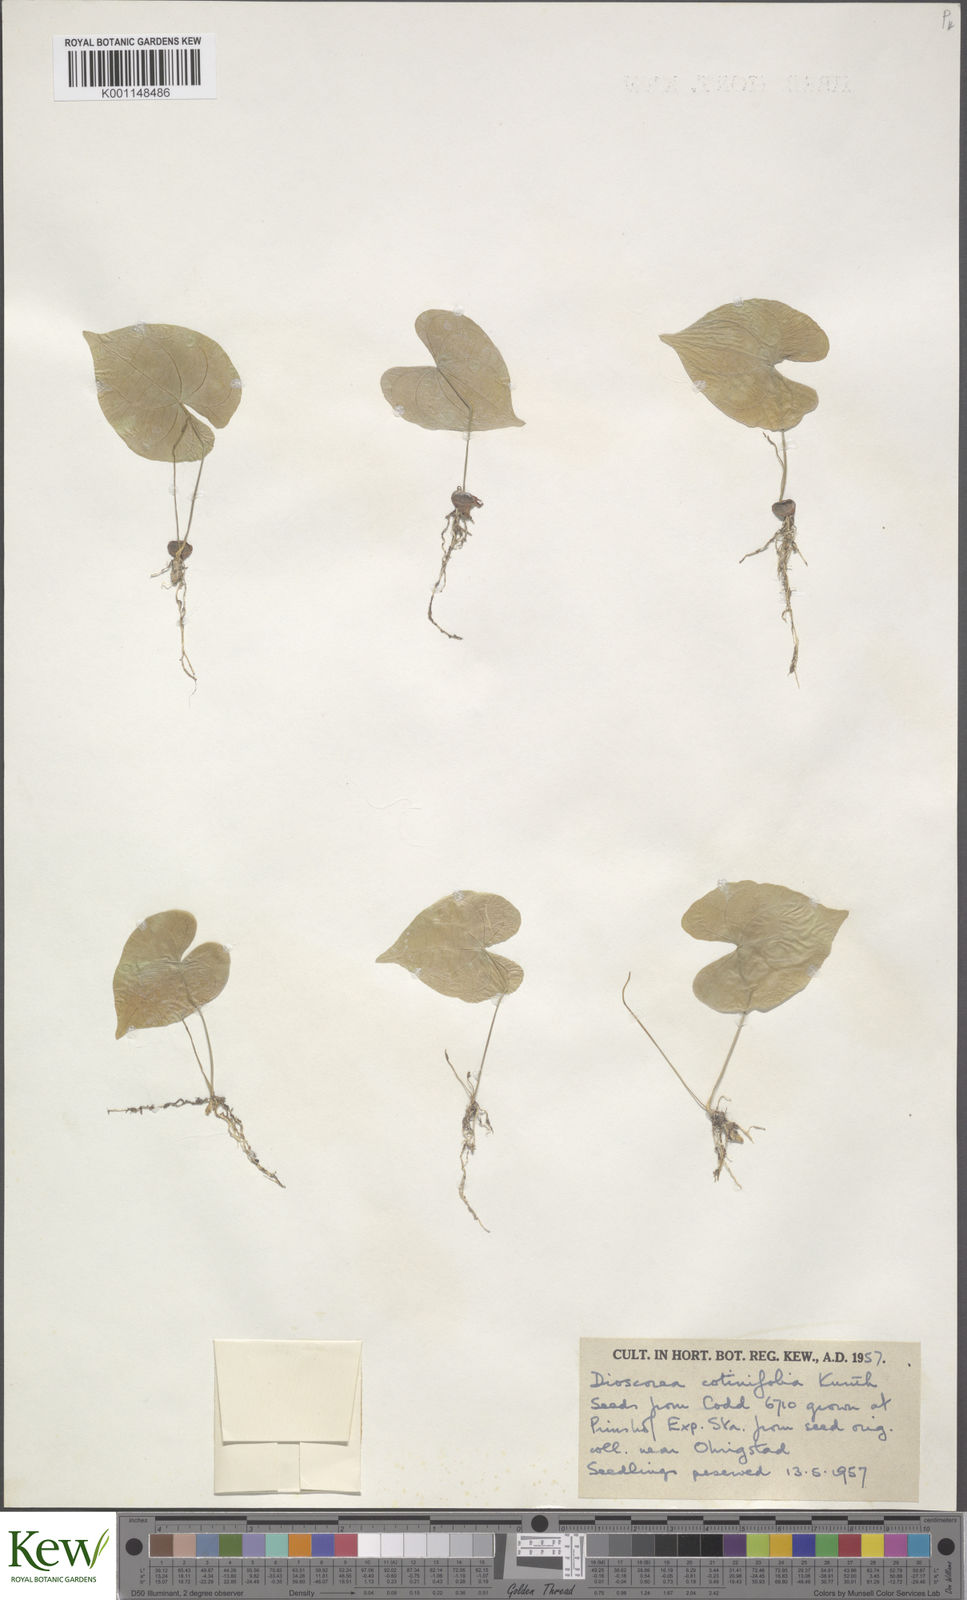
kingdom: Plantae
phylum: Tracheophyta
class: Liliopsida
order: Dioscoreales
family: Dioscoreaceae
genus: Dioscorea
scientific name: Dioscorea cotinifolia
